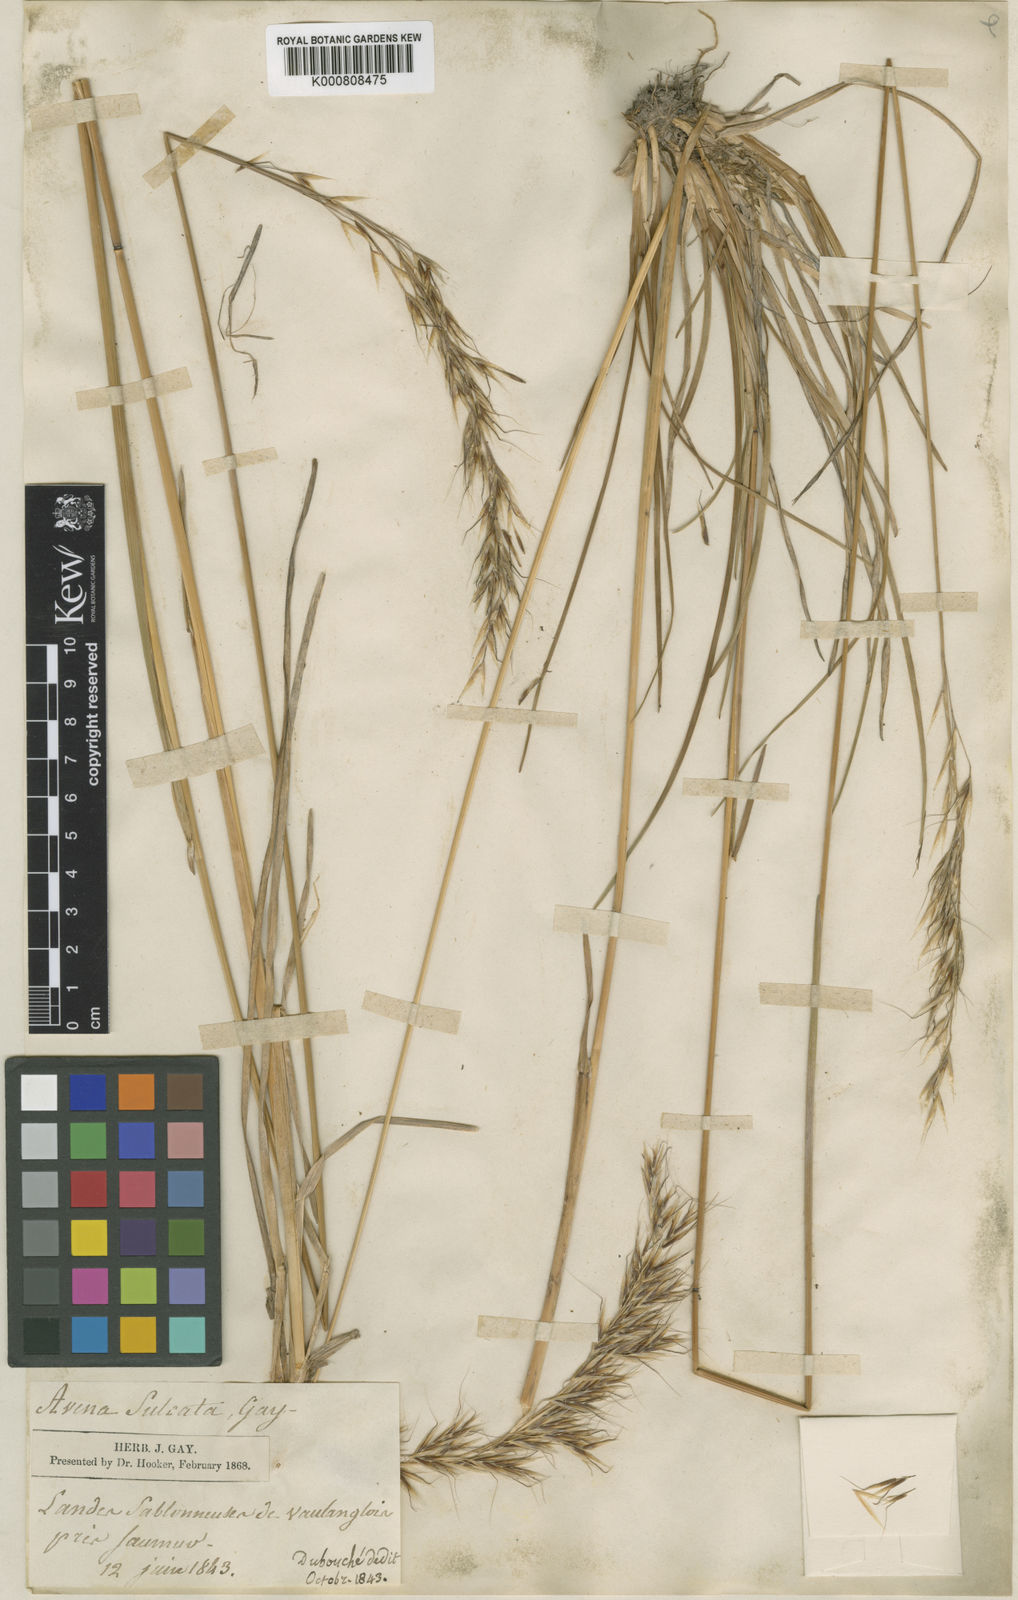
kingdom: Plantae
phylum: Tracheophyta
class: Liliopsida
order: Poales
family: Poaceae
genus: Helictotrichon
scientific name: Helictotrichon
